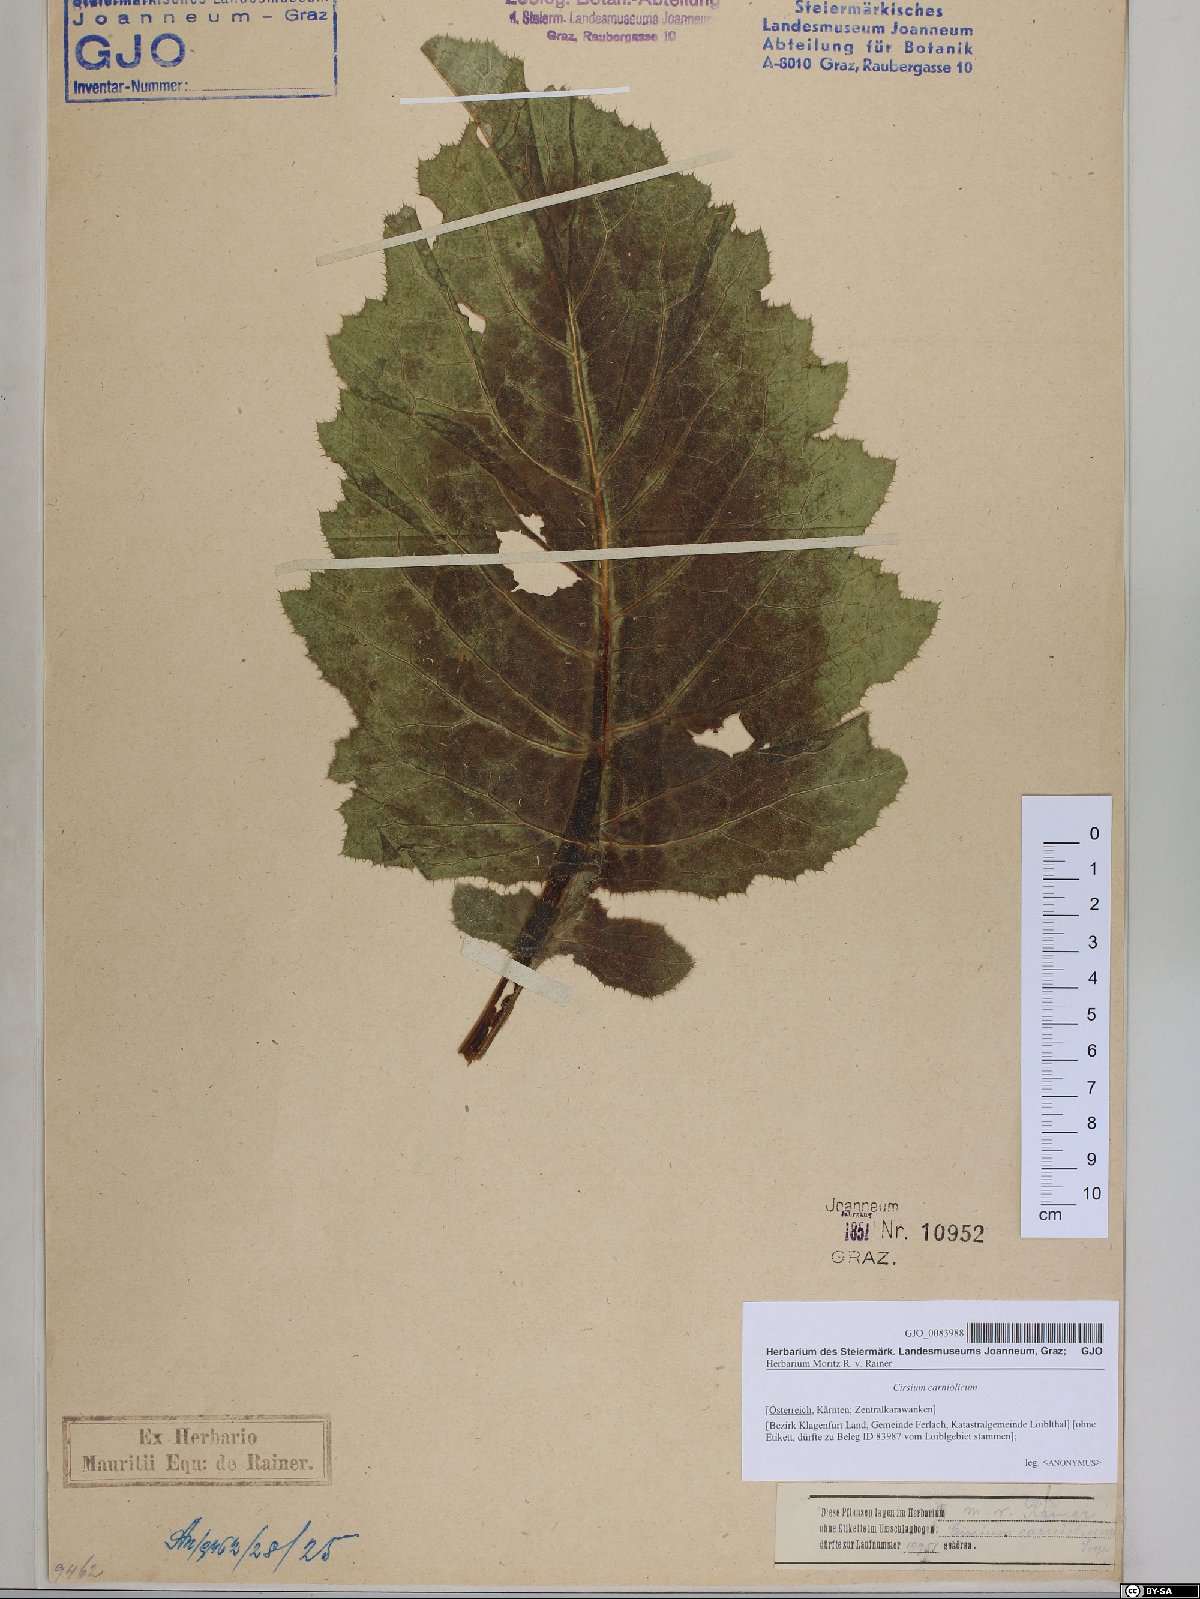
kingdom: Plantae
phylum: Tracheophyta
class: Magnoliopsida
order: Asterales
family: Asteraceae
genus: Cirsium
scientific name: Cirsium carniolicum
